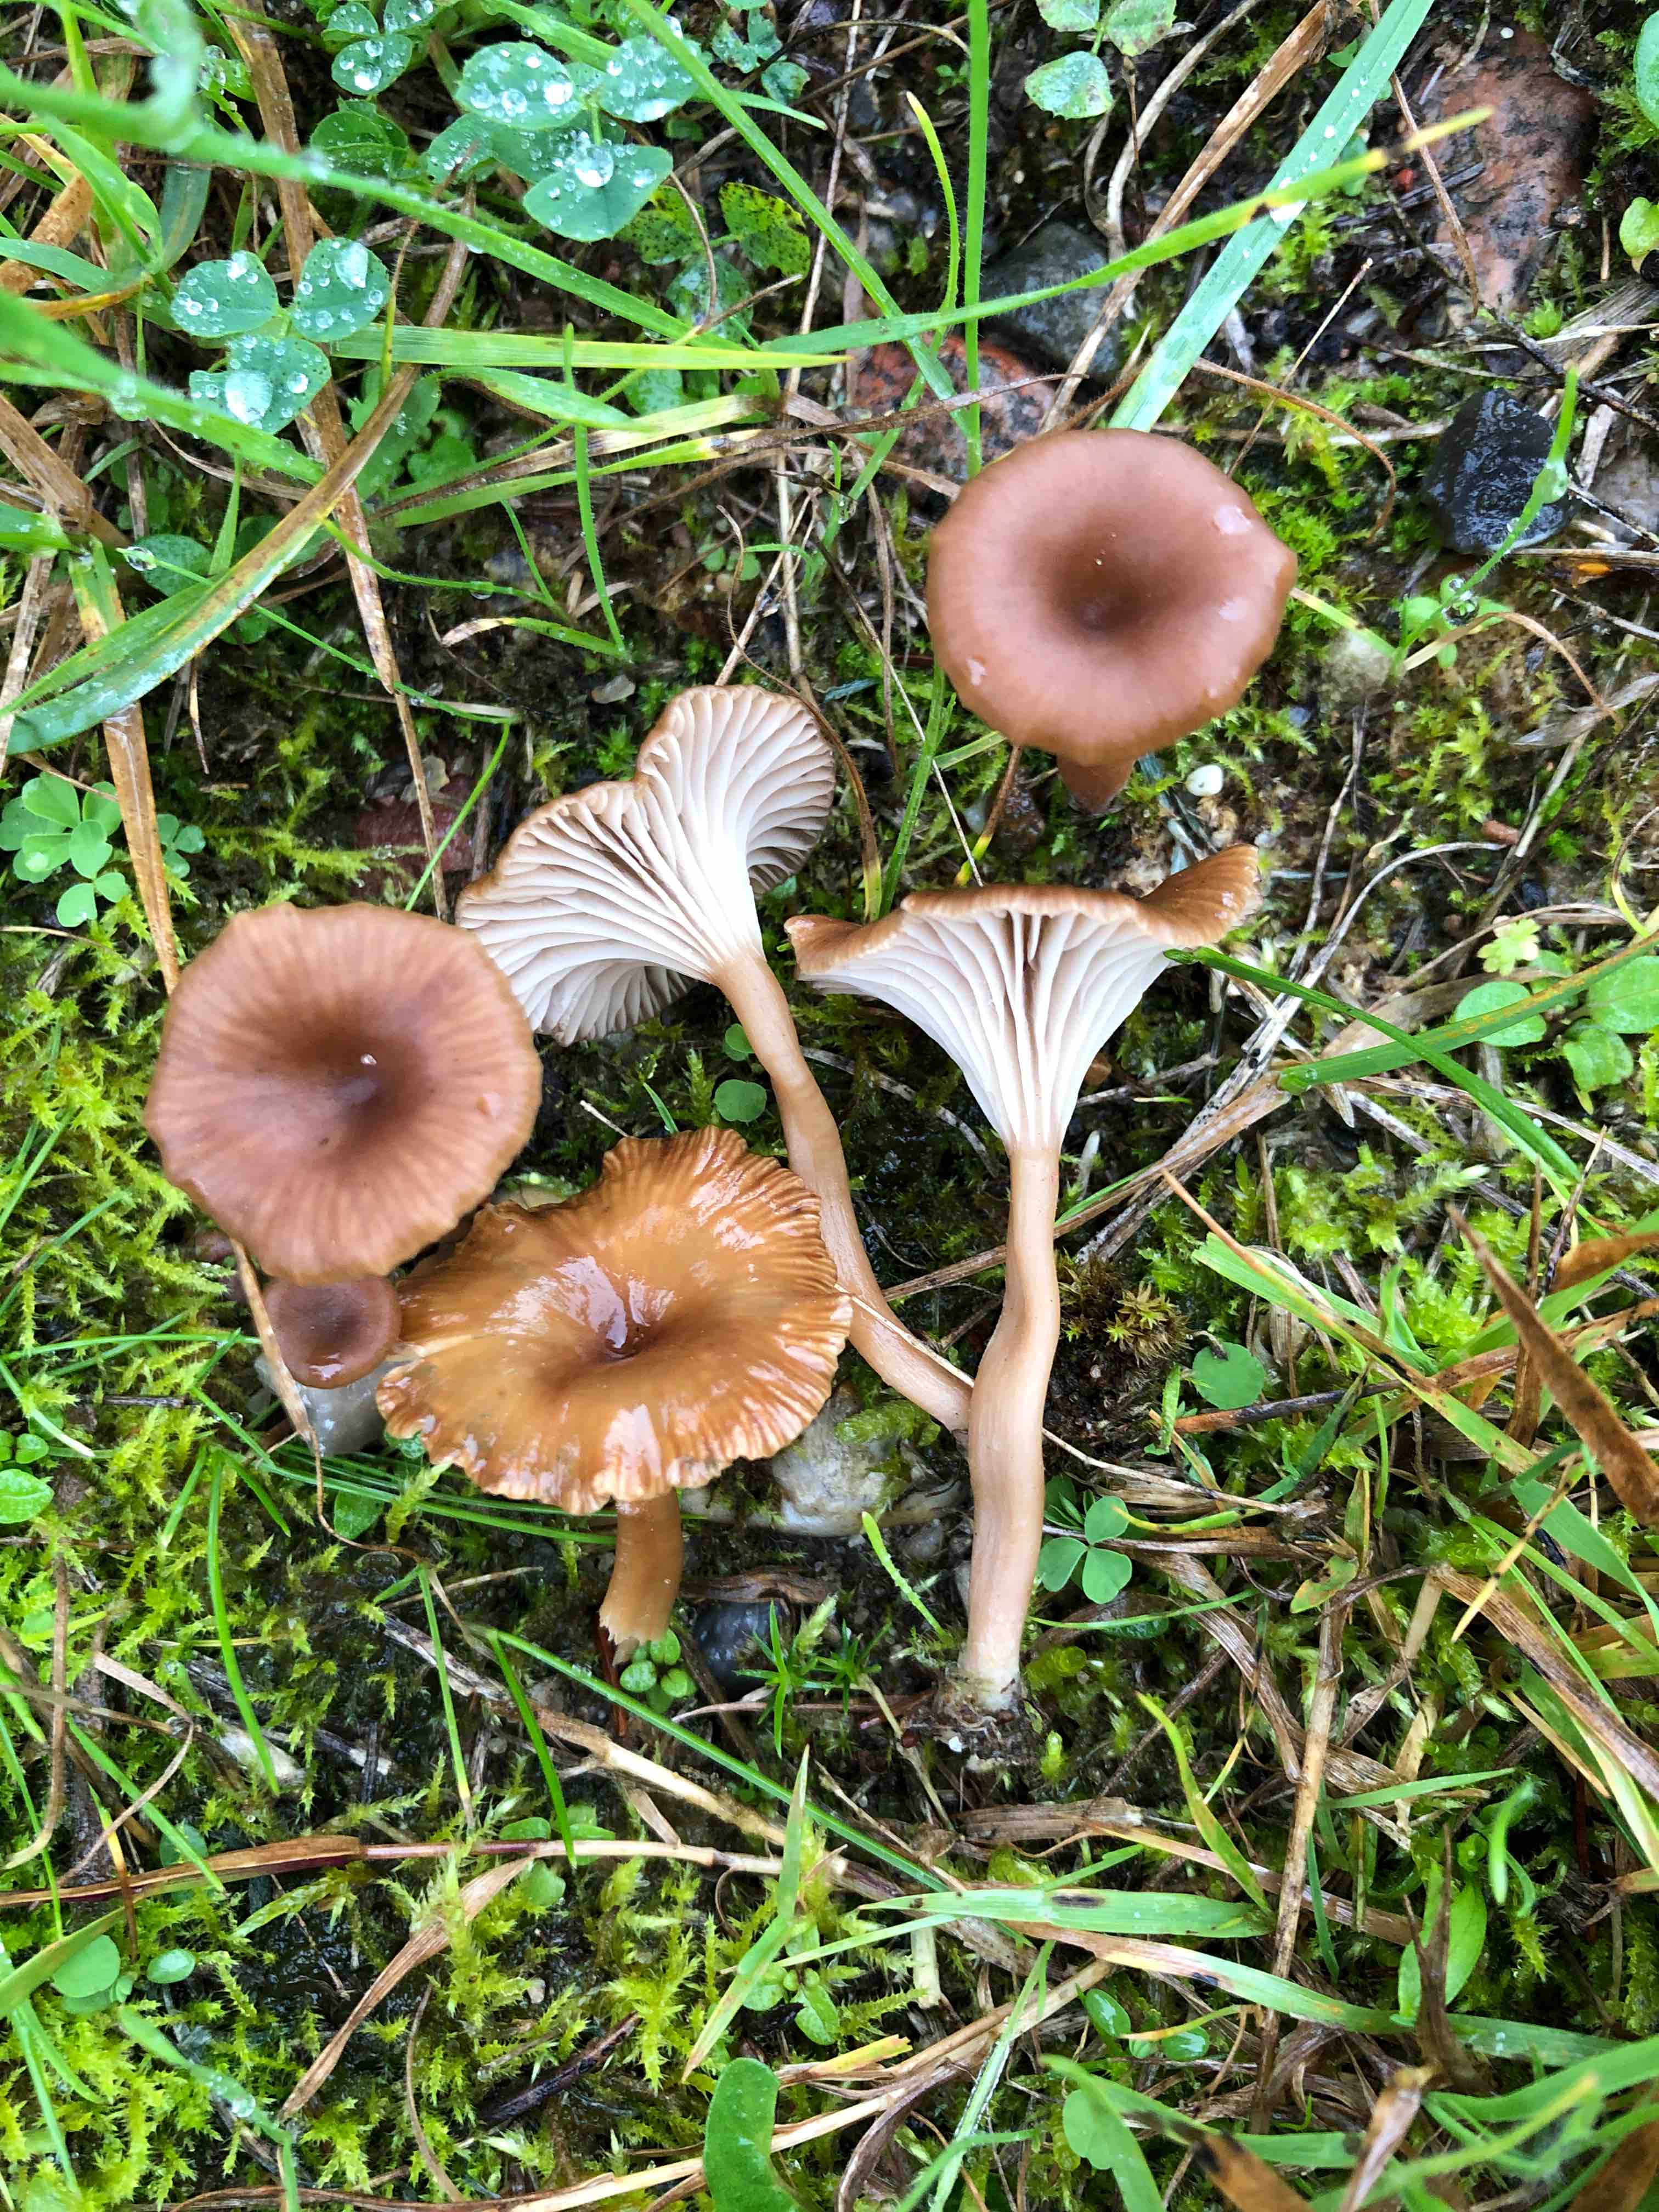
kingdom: Fungi
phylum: Basidiomycota
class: Agaricomycetes
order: Agaricales
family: Tricholomataceae
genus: Omphalina
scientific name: Omphalina pyxidata
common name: rødbrun navlehat
